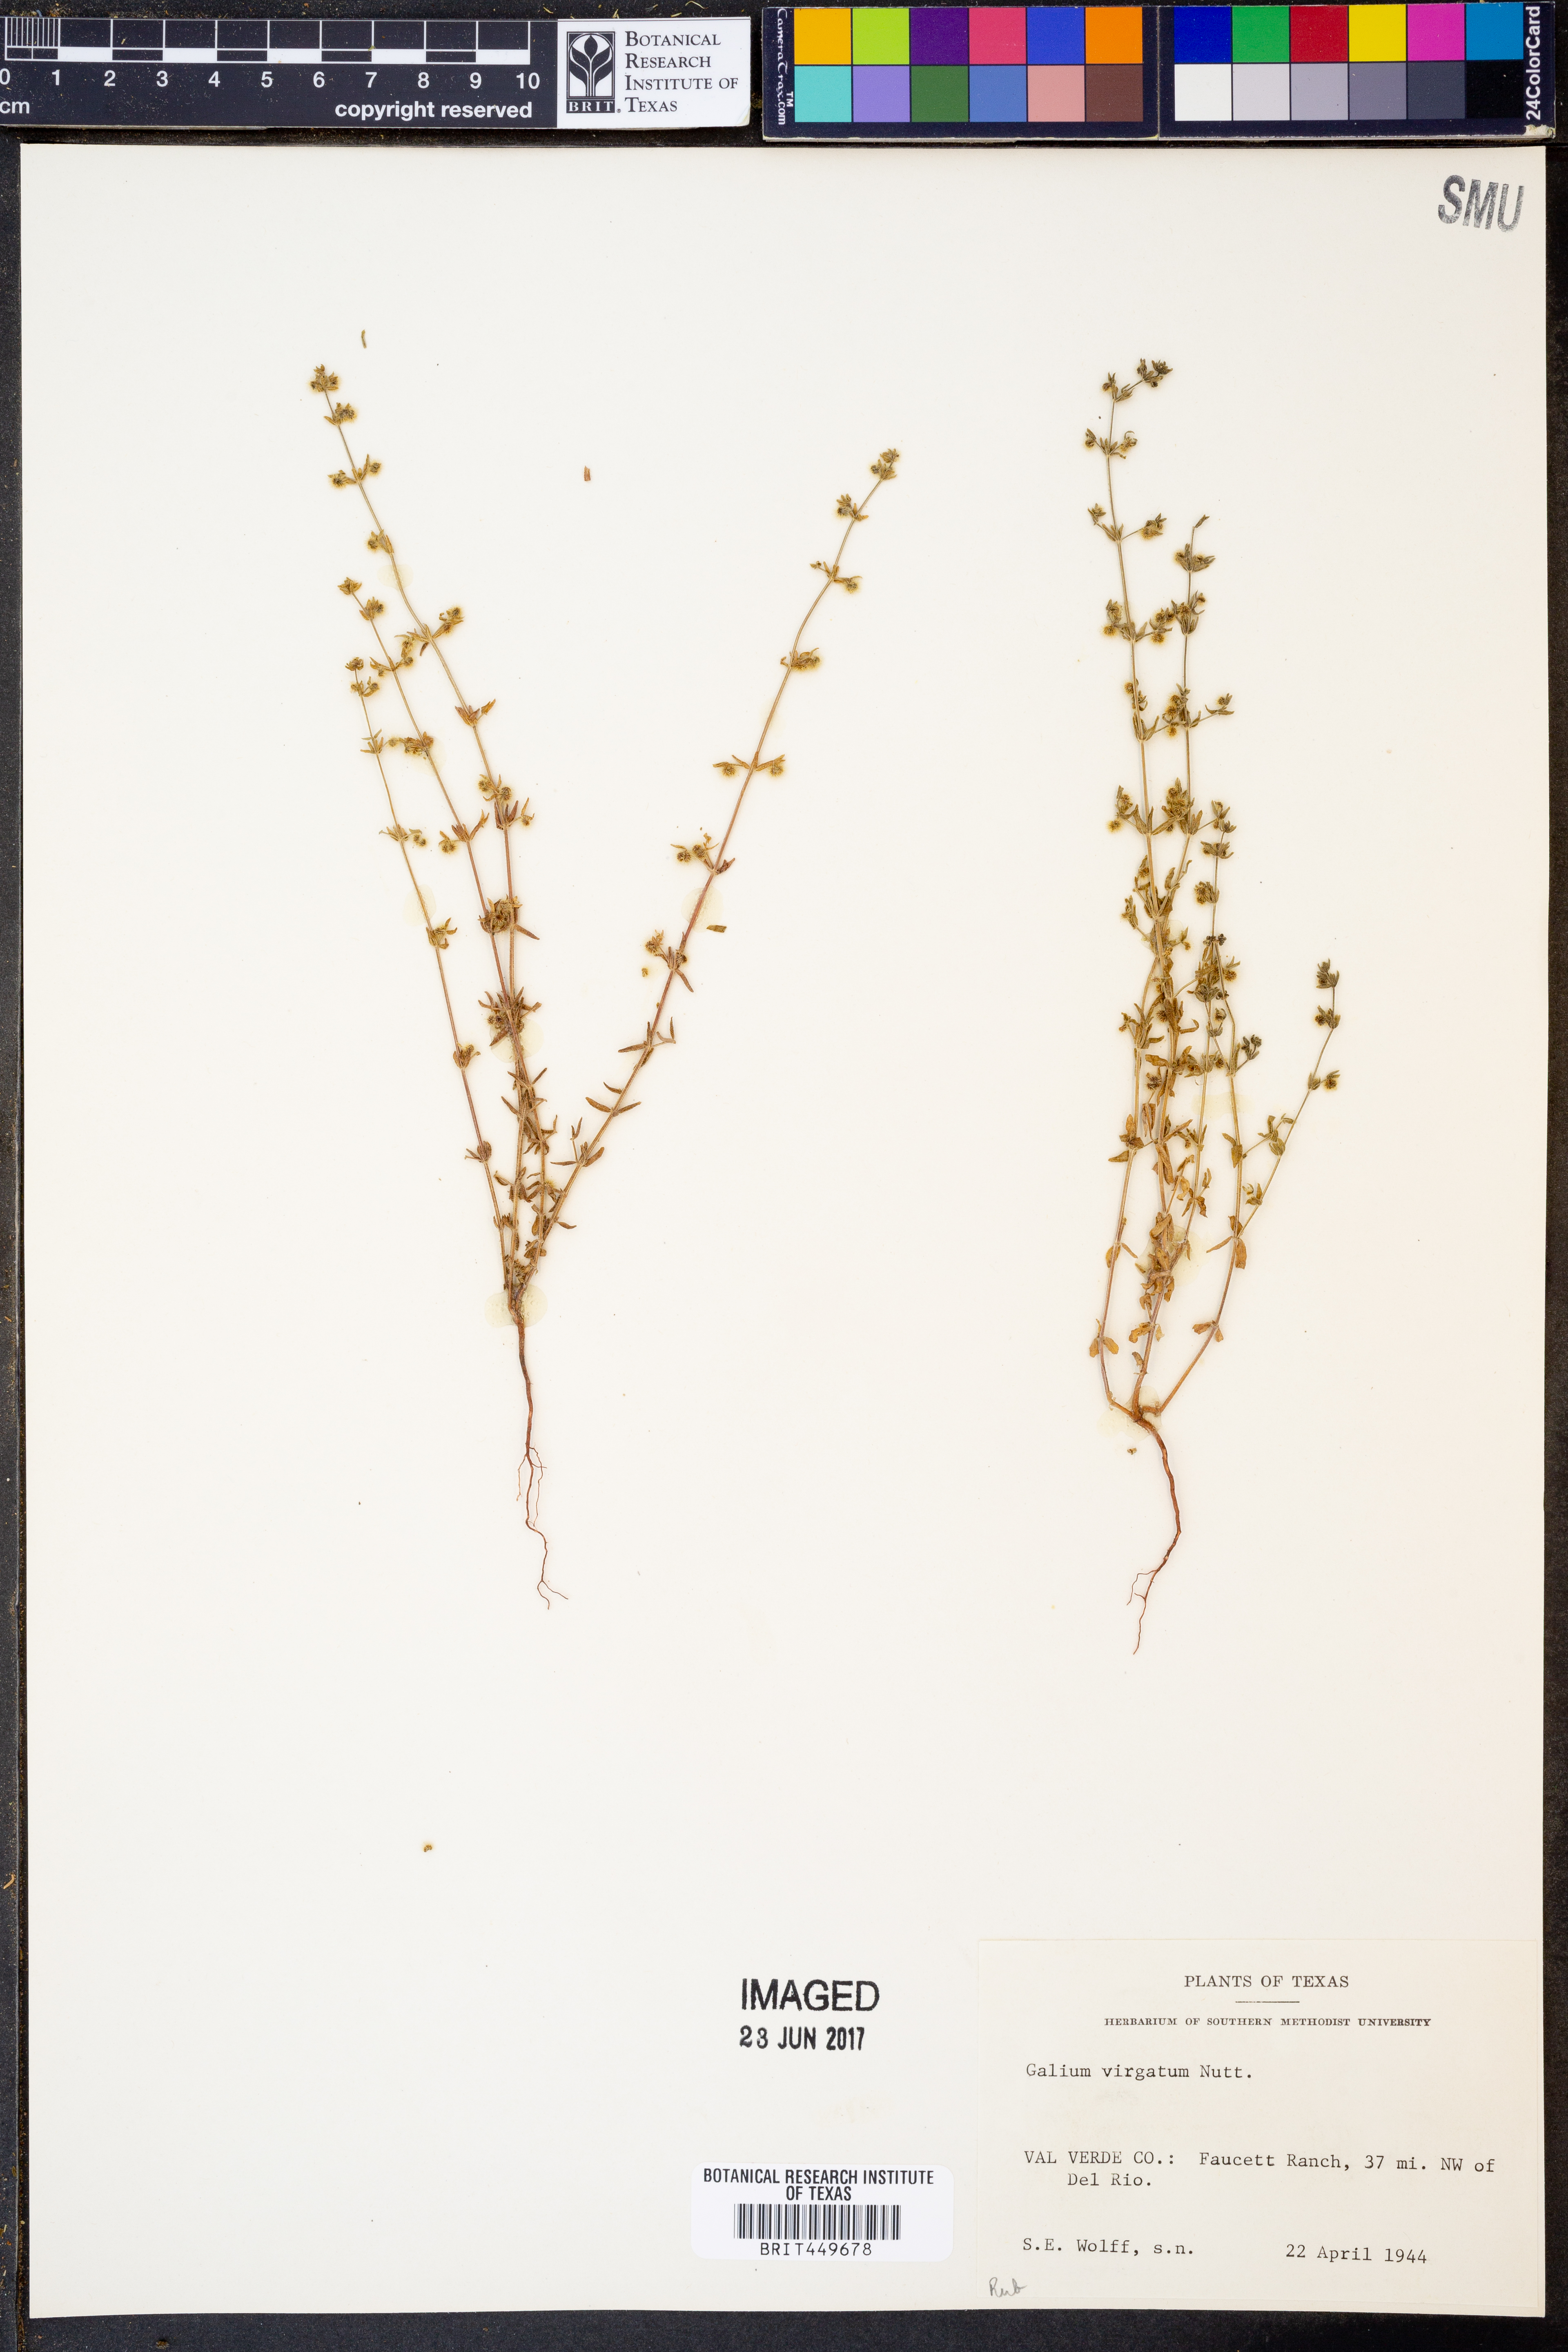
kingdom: Plantae
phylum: Tracheophyta
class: Magnoliopsida
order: Gentianales
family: Rubiaceae
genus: Galium
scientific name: Galium virgatum
